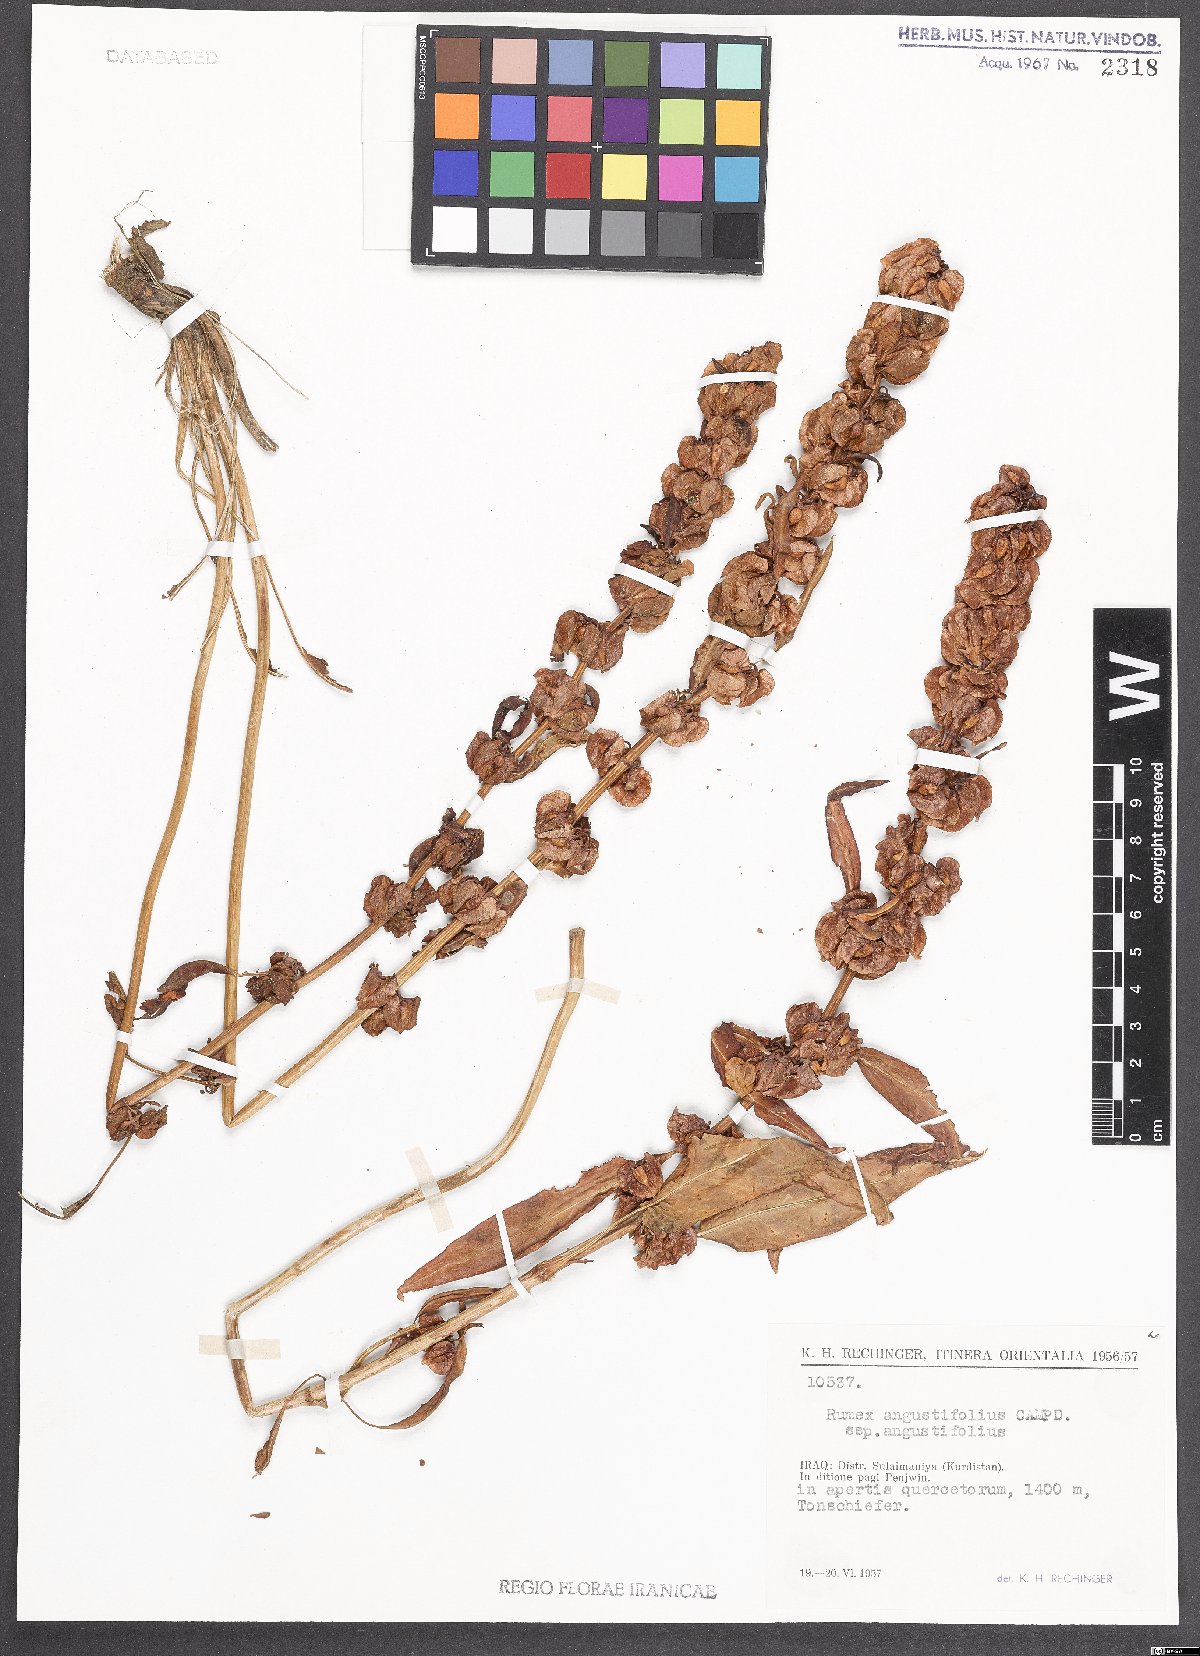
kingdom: Plantae
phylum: Tracheophyta
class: Magnoliopsida
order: Caryophyllales
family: Polygonaceae
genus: Rumex
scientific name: Rumex angustifolius
